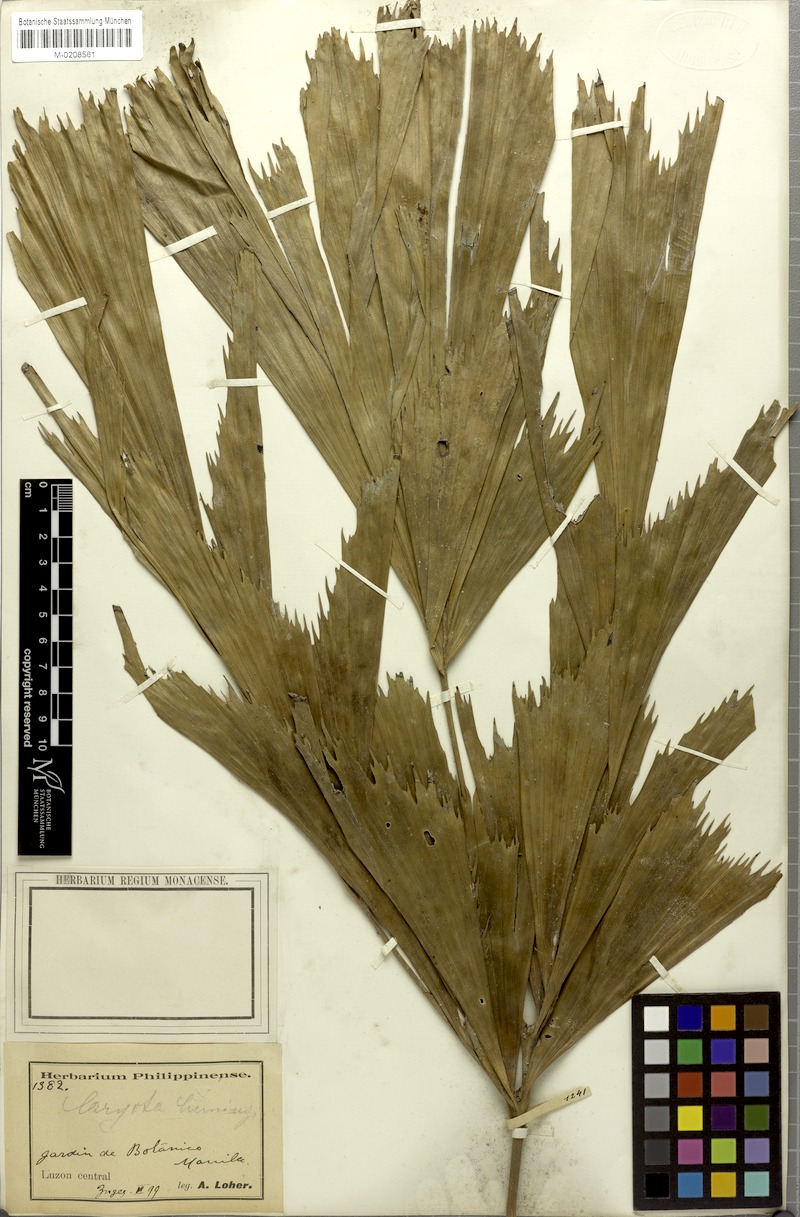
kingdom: Plantae
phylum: Tracheophyta
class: Liliopsida
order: Arecales
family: Arecaceae
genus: Caryota
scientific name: Caryota cumingii
